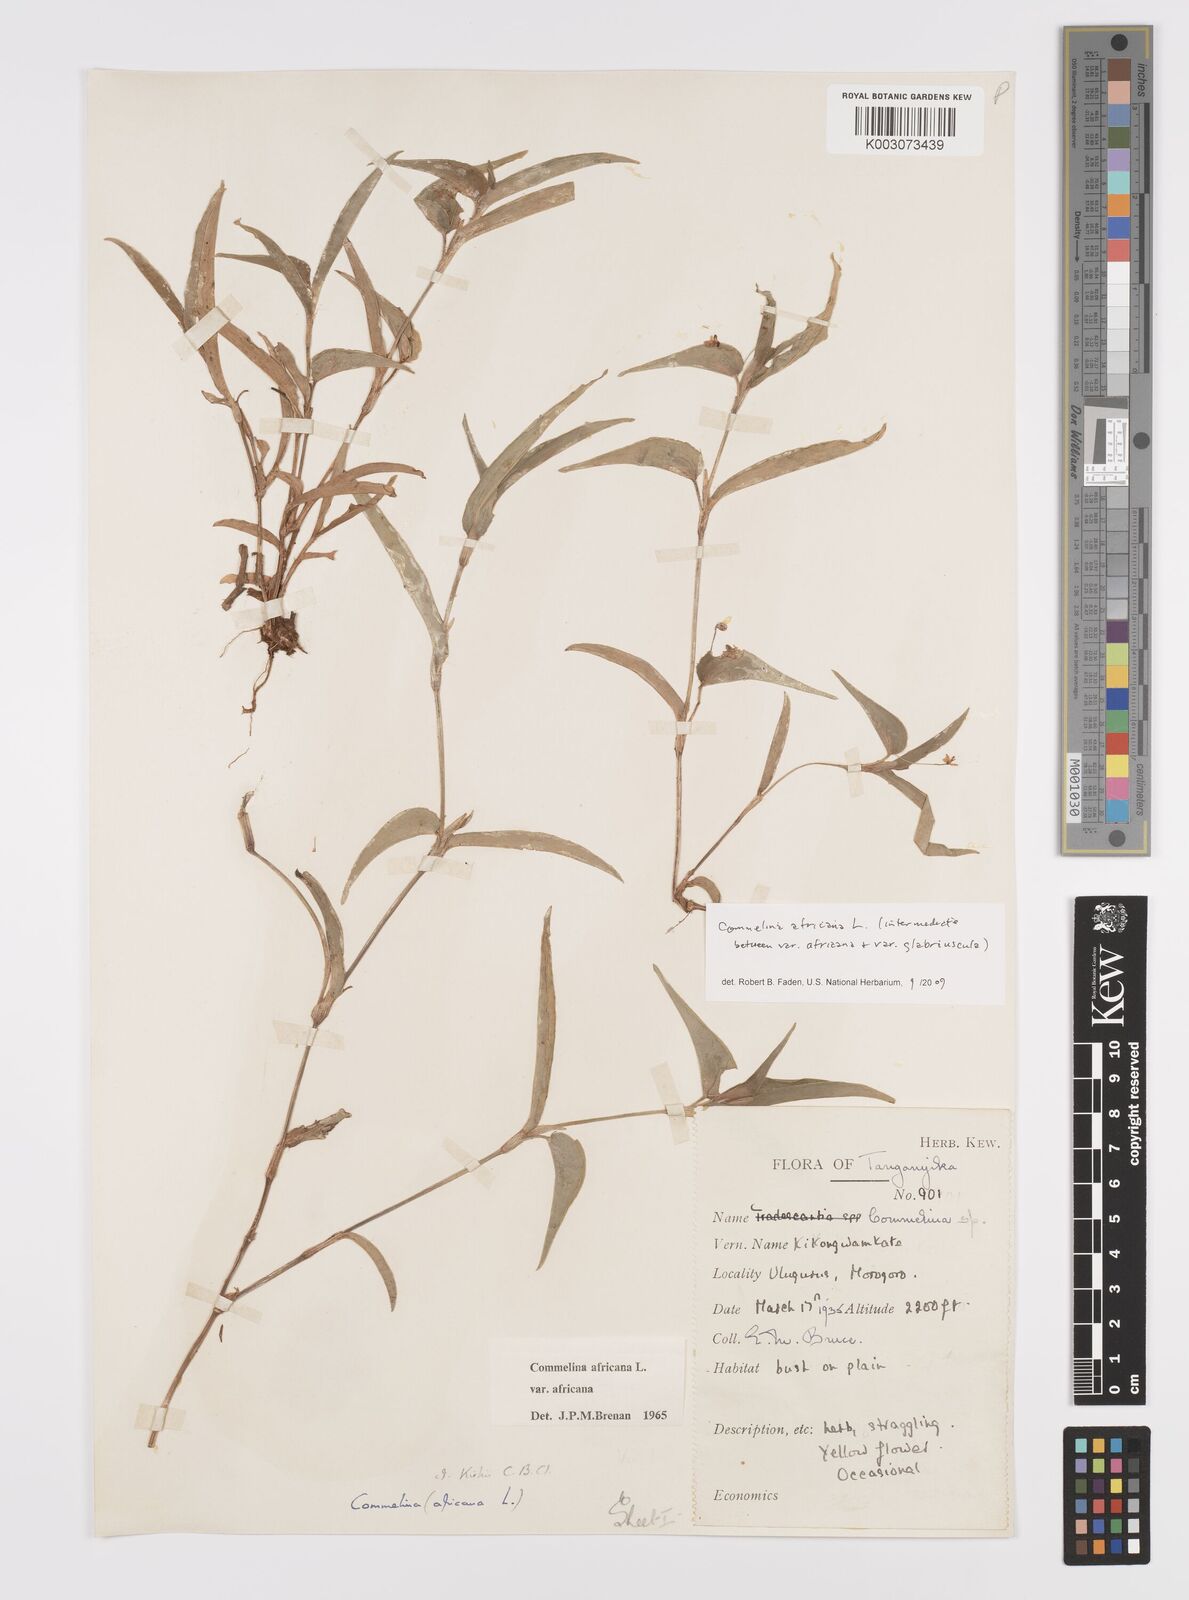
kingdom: Plantae
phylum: Tracheophyta
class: Liliopsida
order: Commelinales
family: Commelinaceae
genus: Commelina
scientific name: Commelina africana
